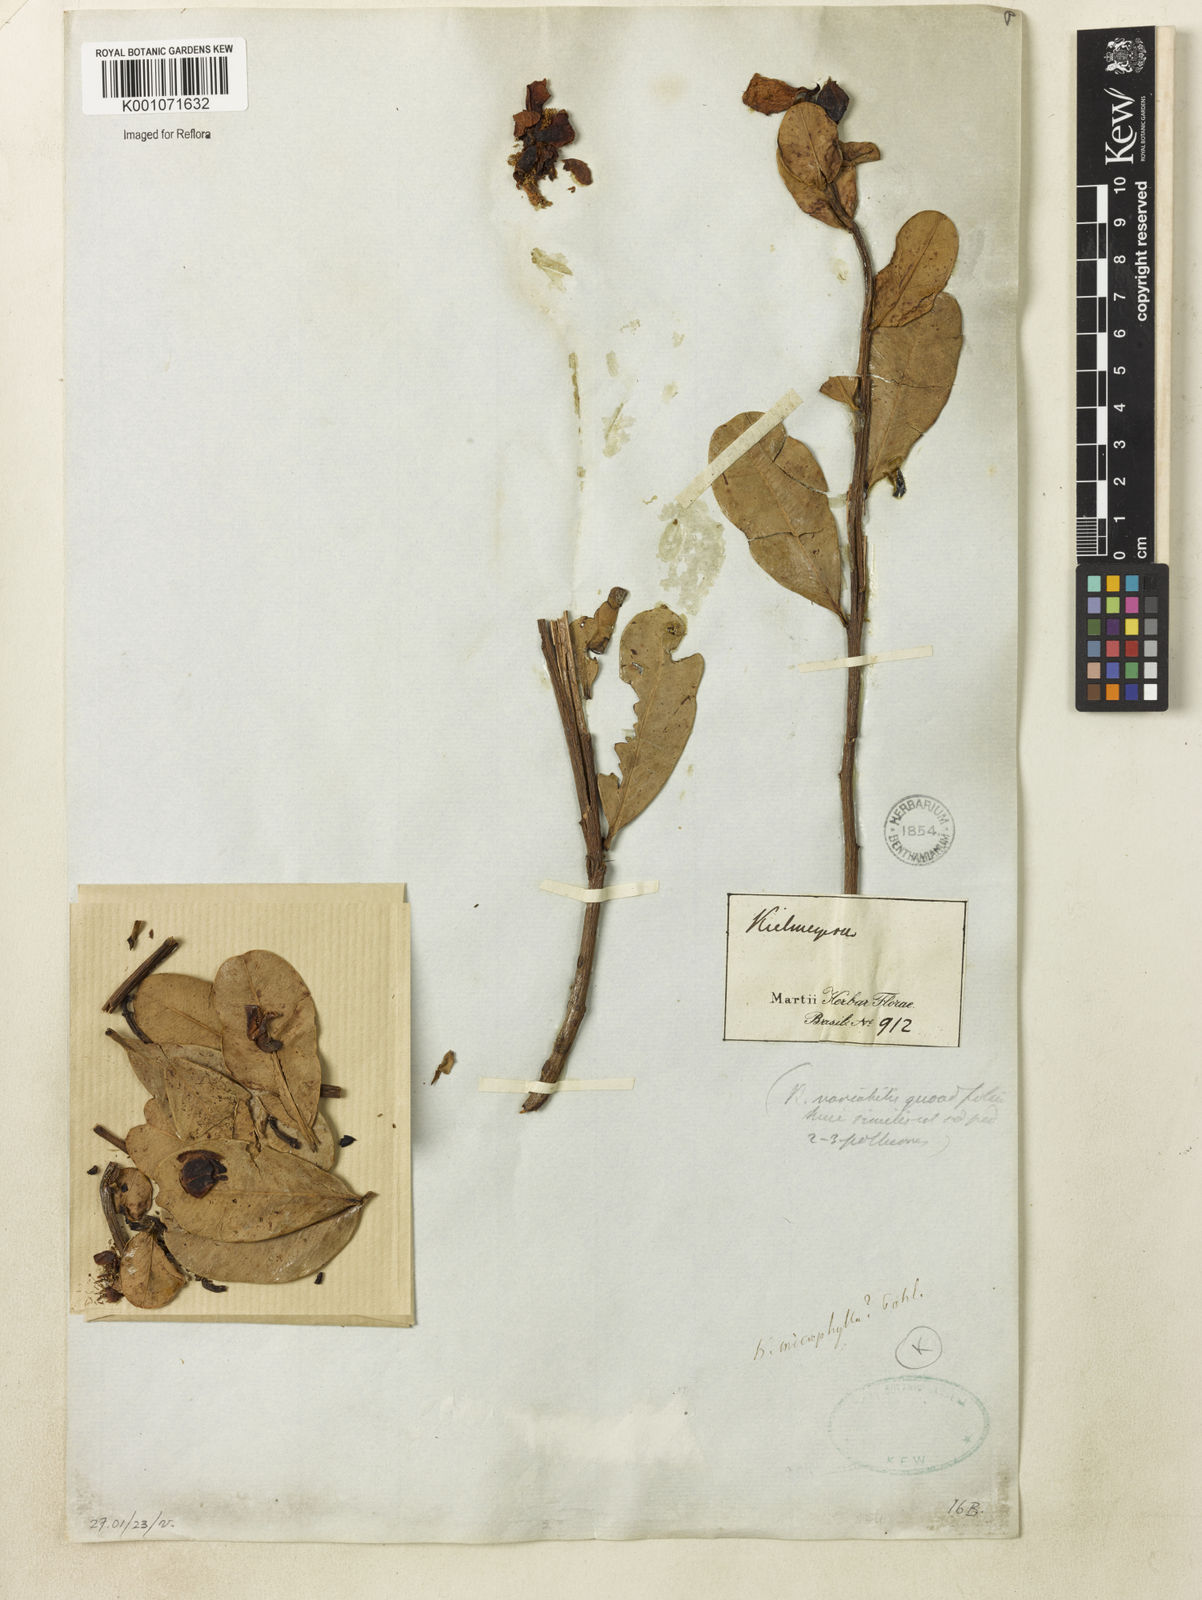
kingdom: Plantae
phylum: Tracheophyta
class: Magnoliopsida
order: Malpighiales
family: Calophyllaceae
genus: Kielmeyera
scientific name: Kielmeyera variabilis
